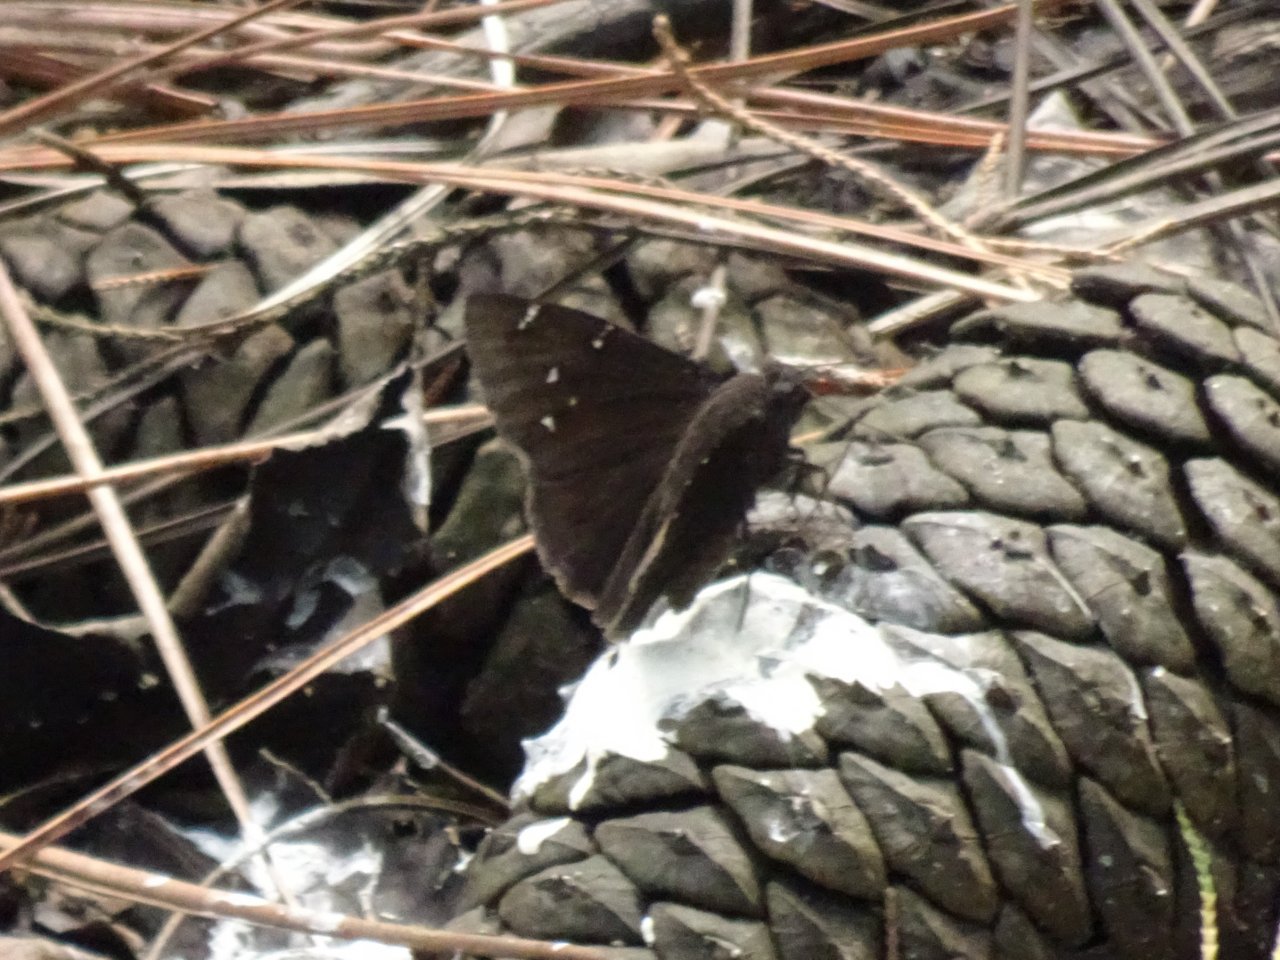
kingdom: Animalia
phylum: Arthropoda
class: Insecta
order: Lepidoptera
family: Hesperiidae
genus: Autochton
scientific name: Autochton
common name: Northern Cloudywing
